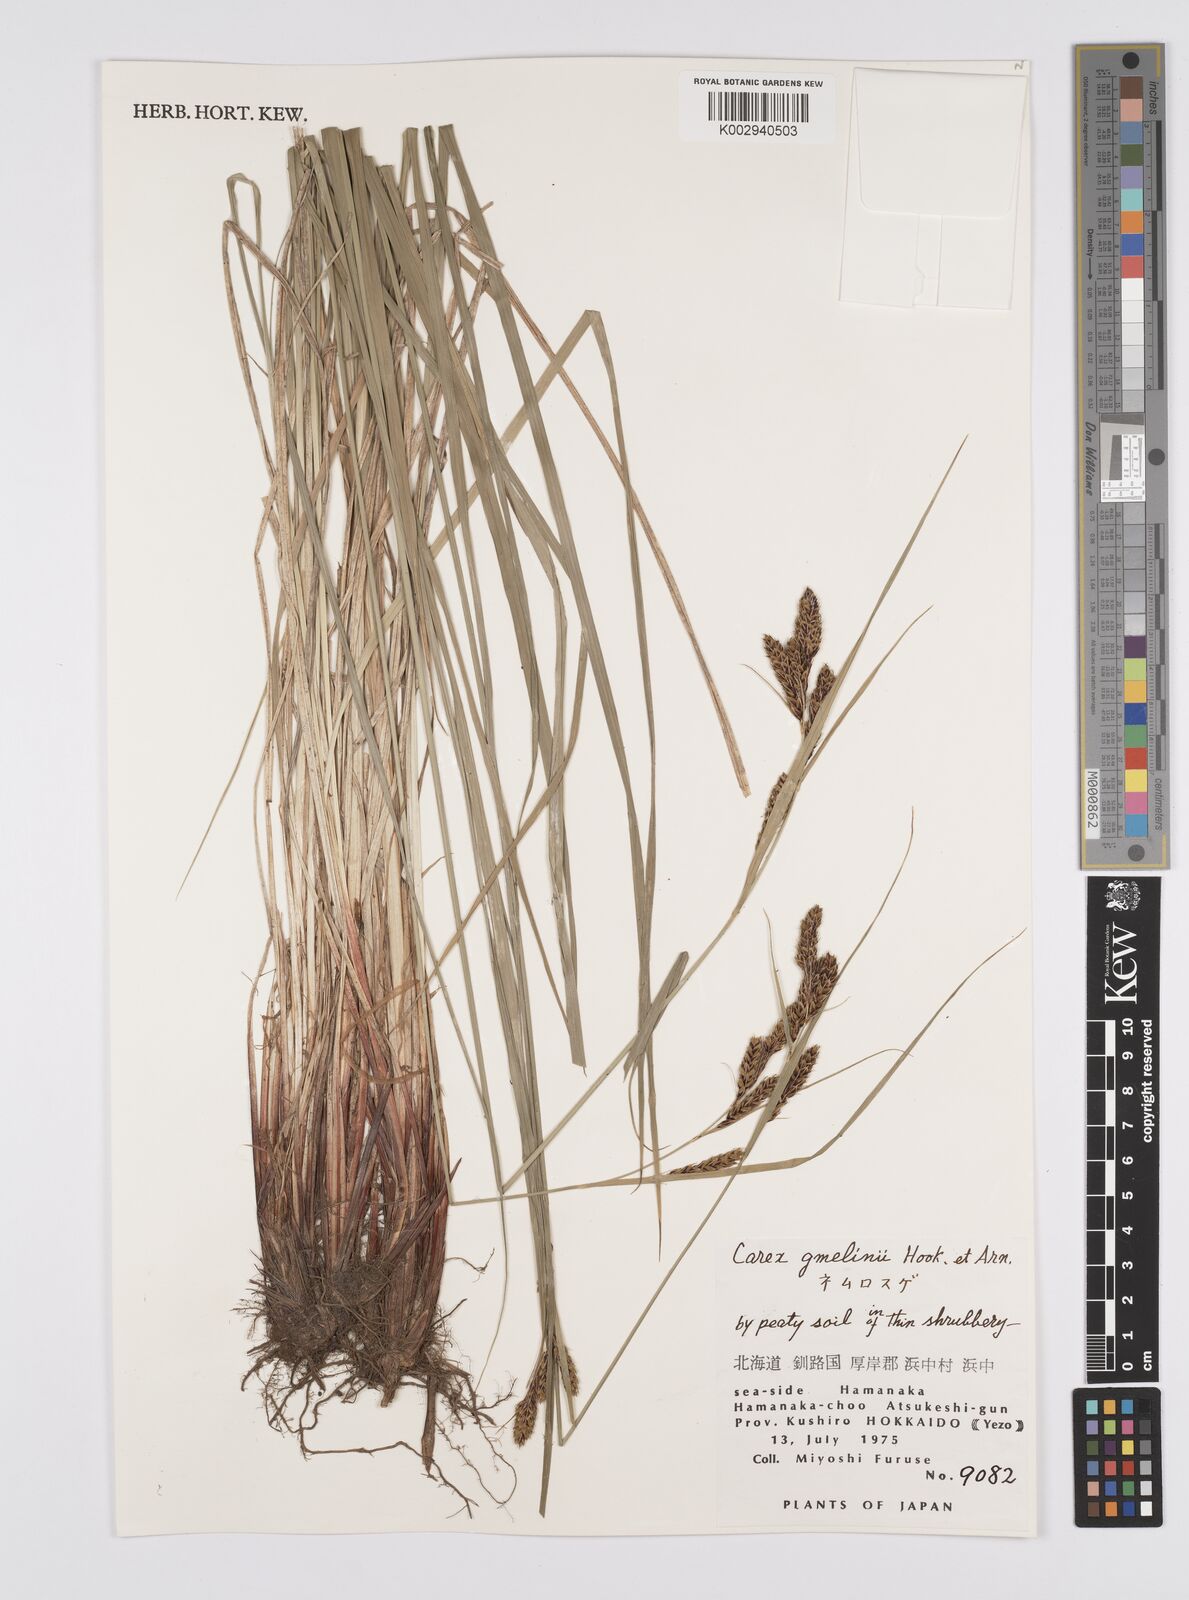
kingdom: Plantae
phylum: Tracheophyta
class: Liliopsida
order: Poales
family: Cyperaceae
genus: Carex
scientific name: Carex gmelinii
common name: Gmelin's sedge
